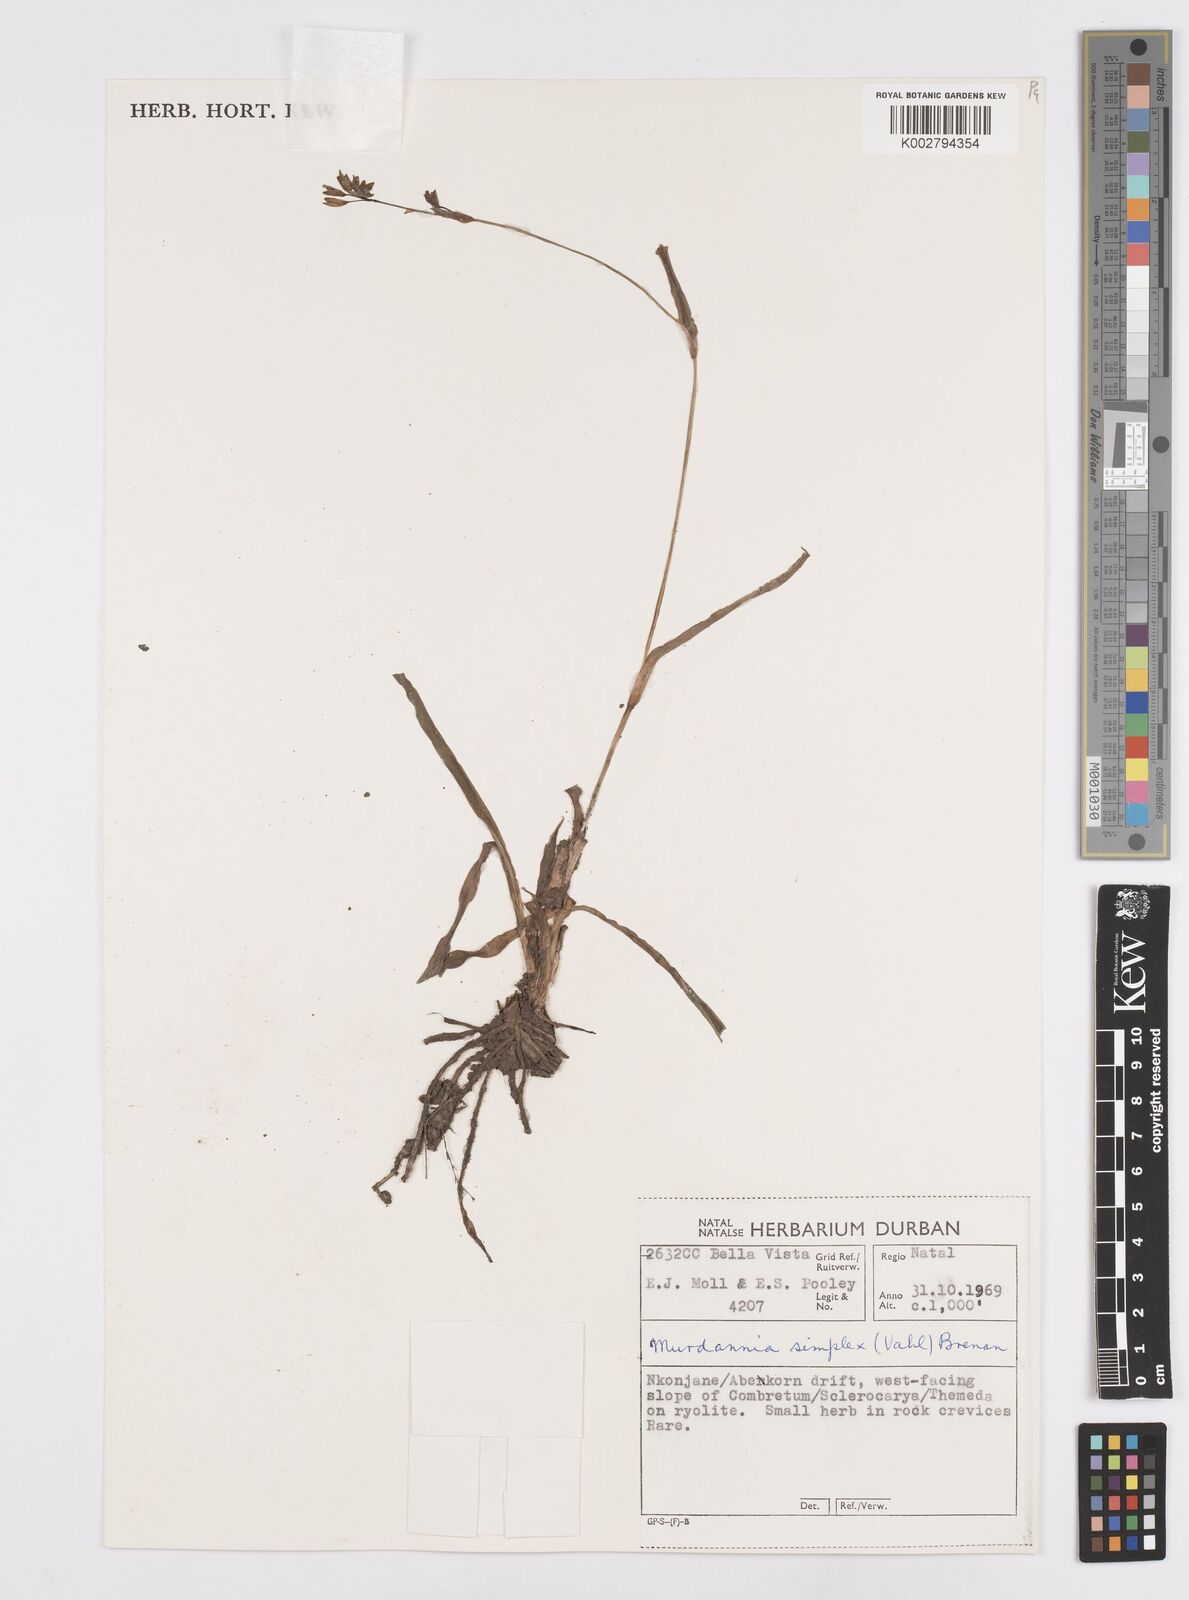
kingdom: Plantae
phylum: Tracheophyta
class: Liliopsida
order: Commelinales
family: Commelinaceae
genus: Murdannia
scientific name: Murdannia simplex
